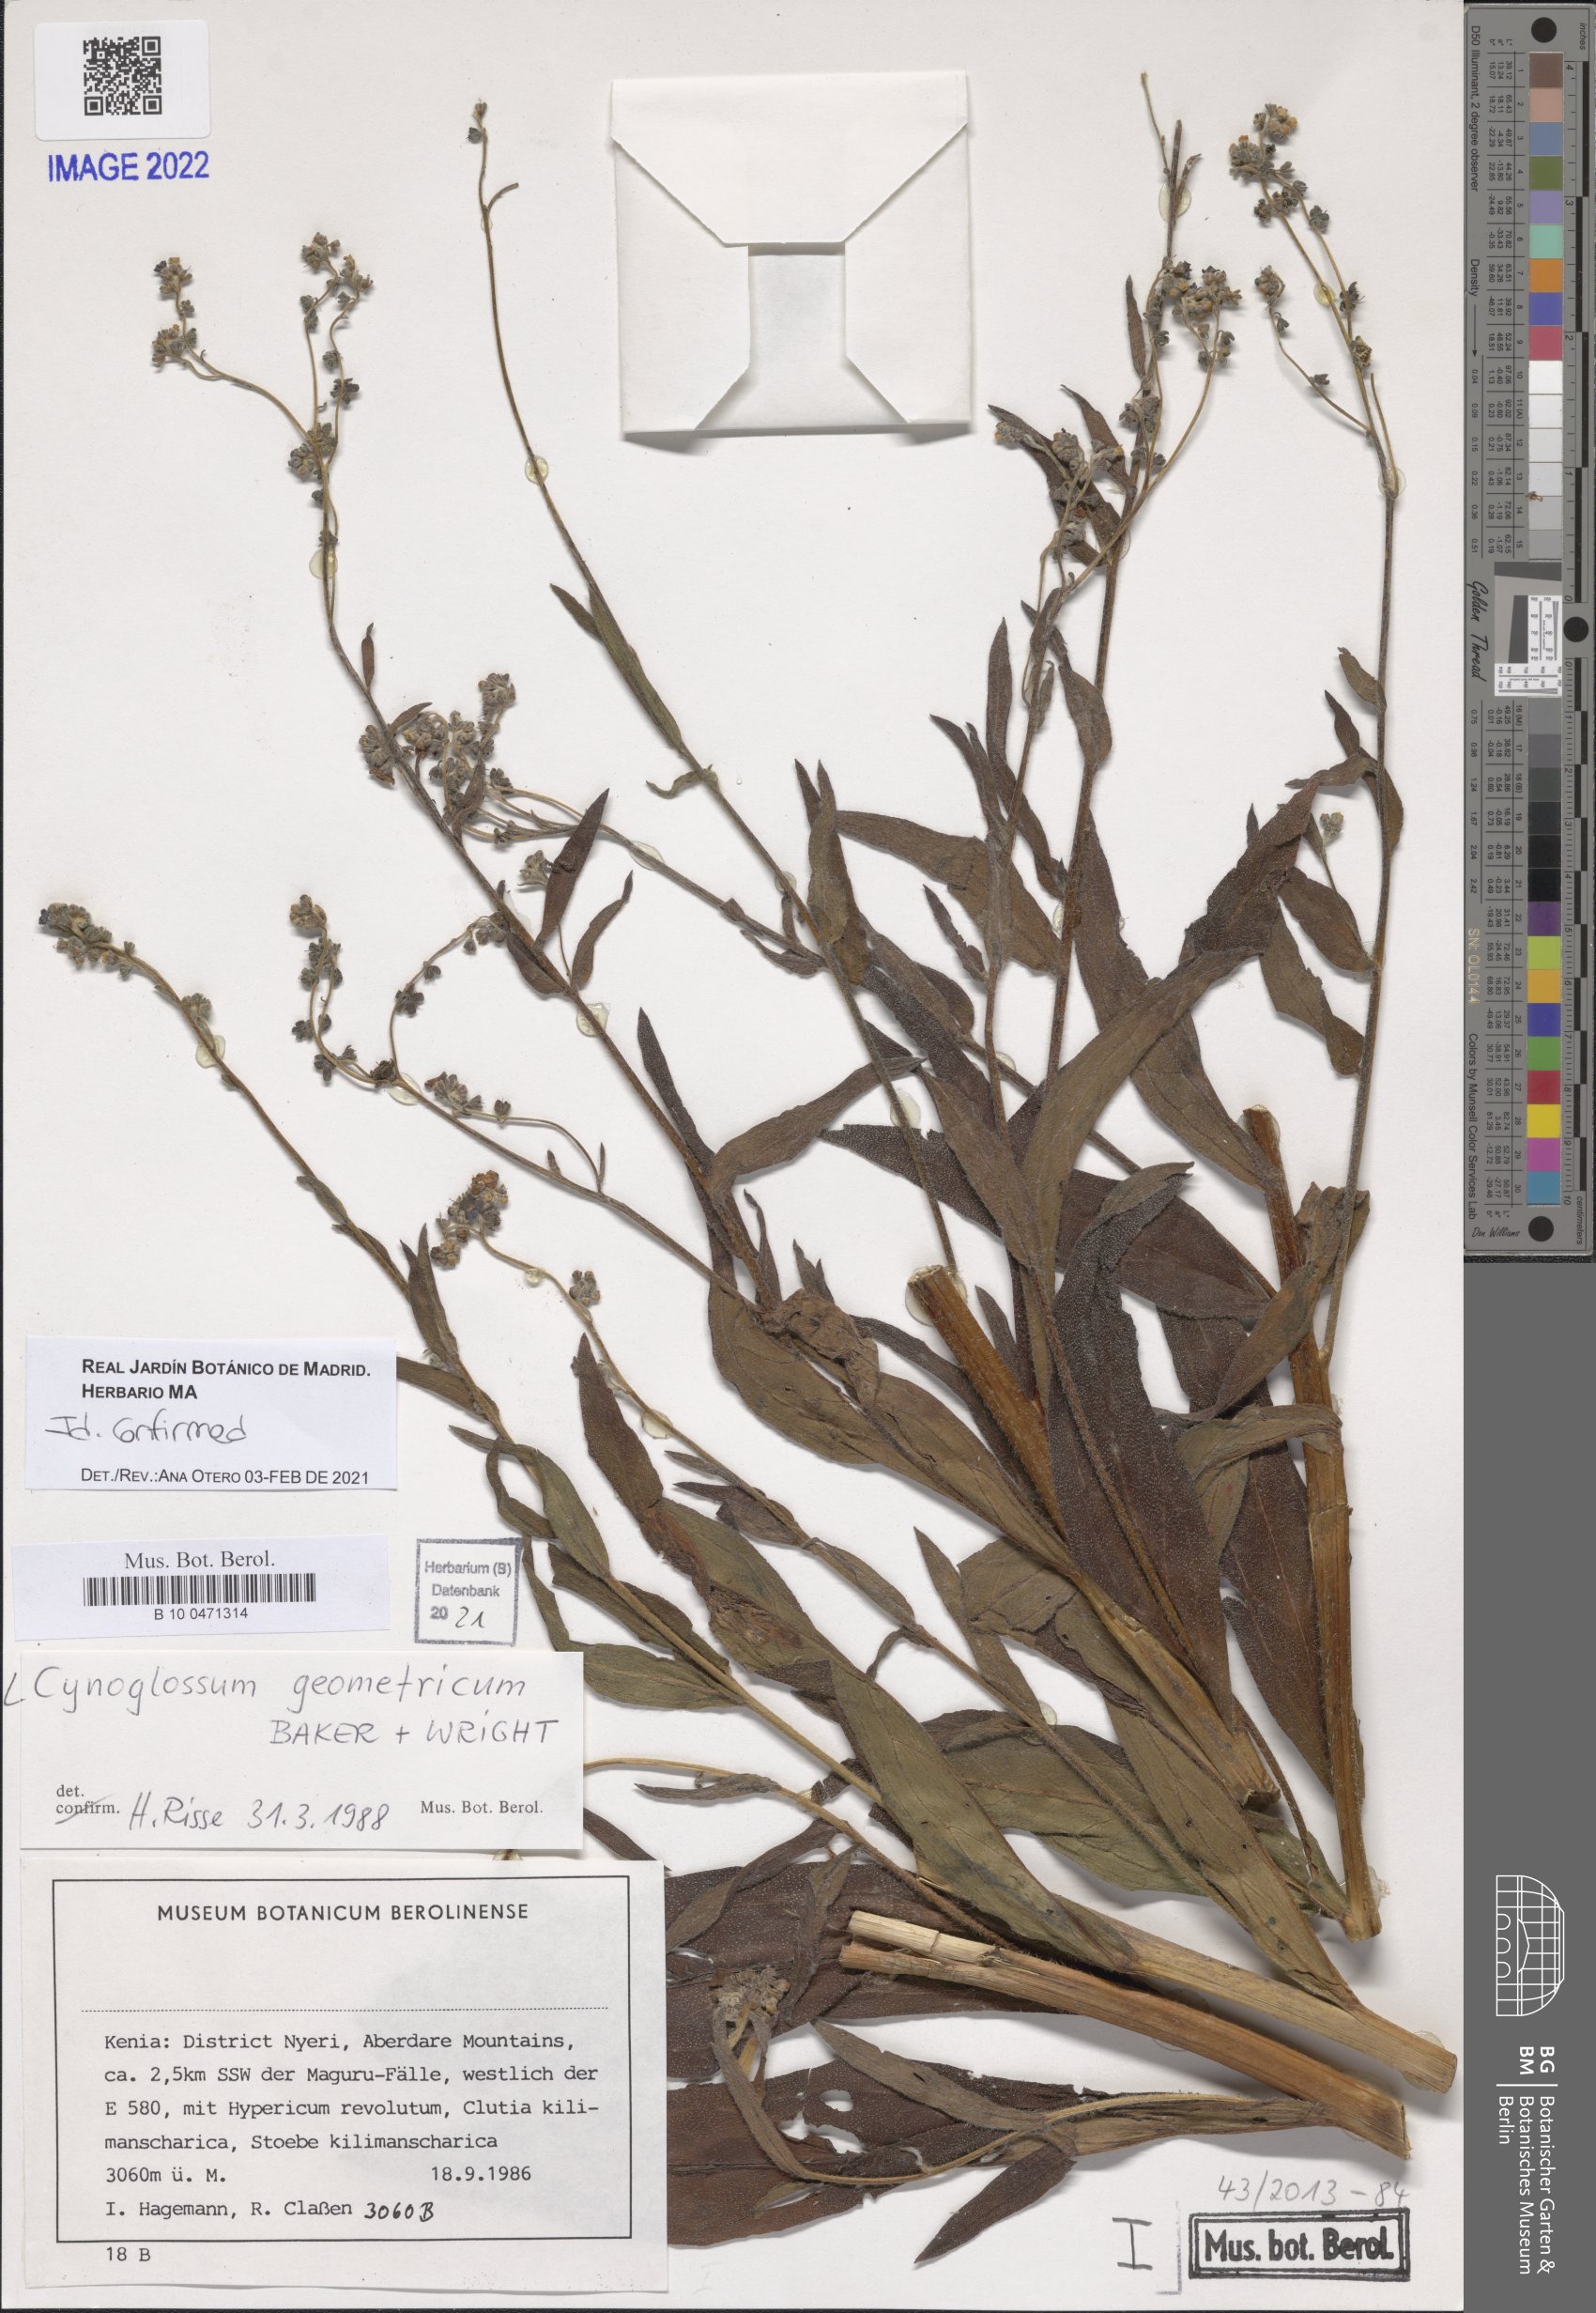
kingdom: Plantae
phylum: Tracheophyta
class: Magnoliopsida
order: Boraginales
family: Boraginaceae
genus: Paracynoglossum
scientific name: Paracynoglossum geometricum
